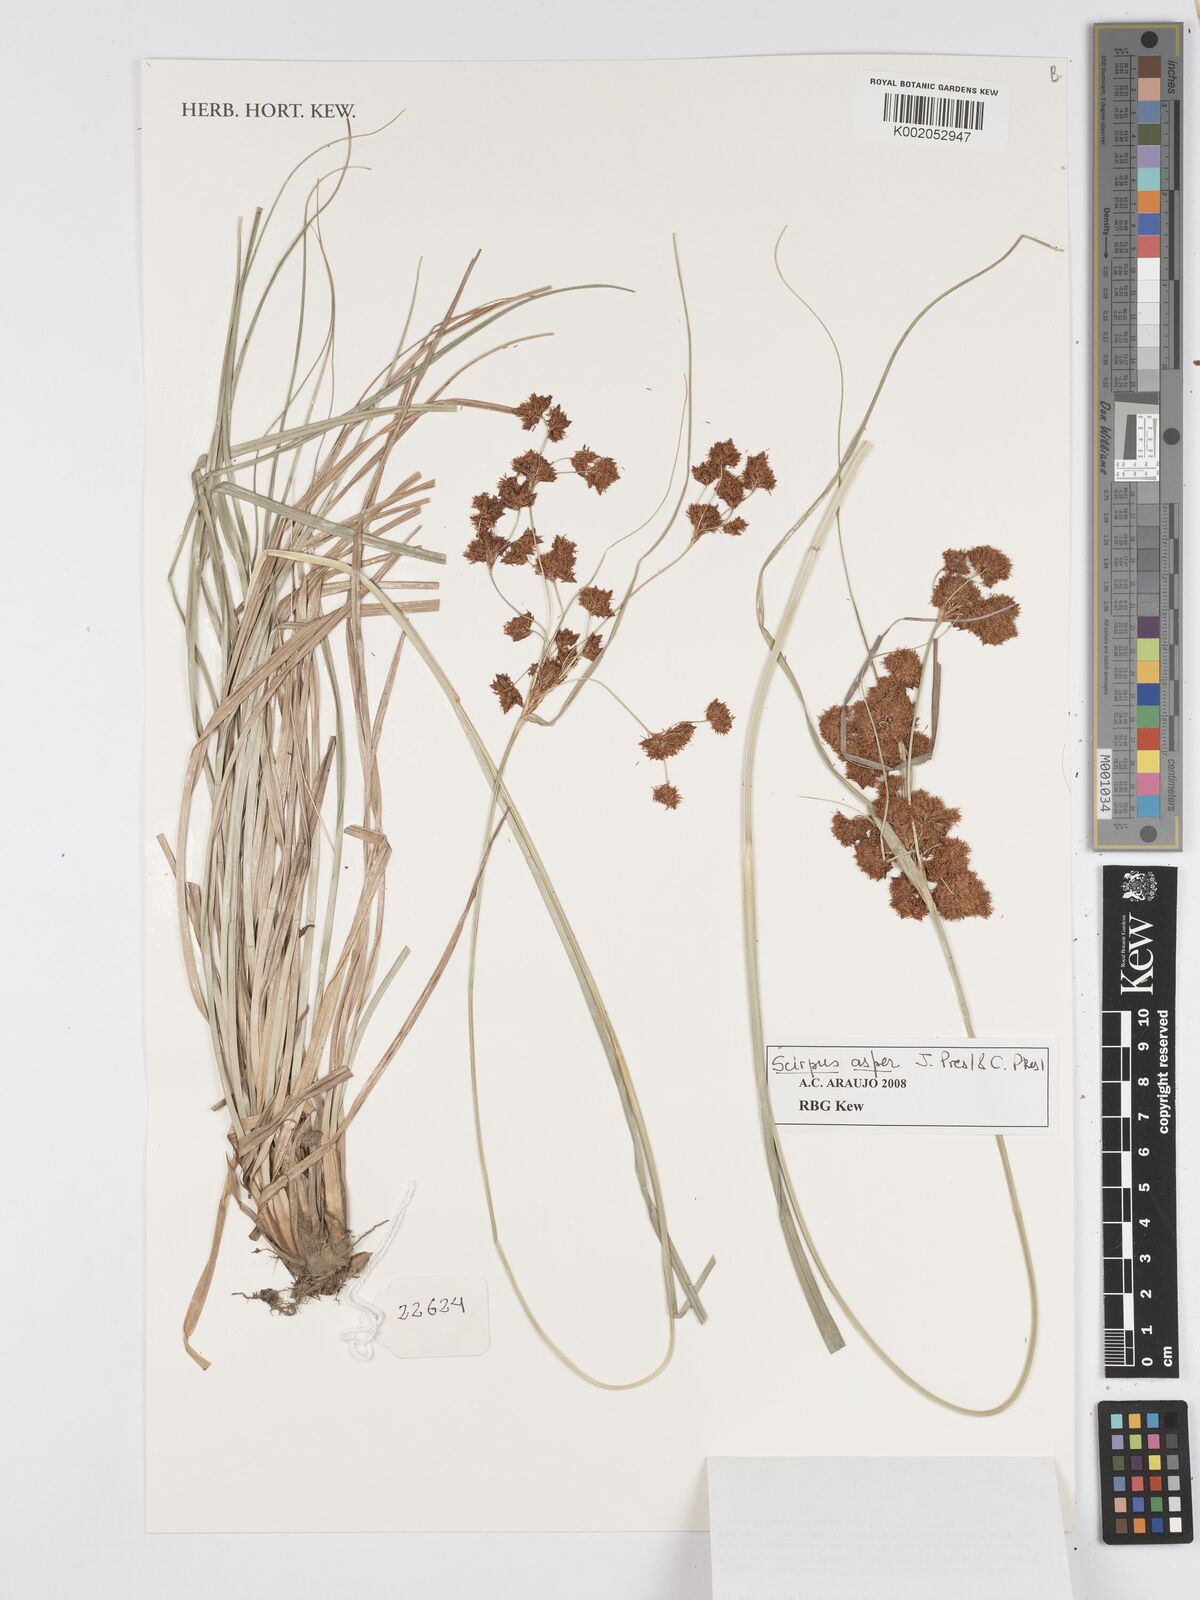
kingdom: Plantae
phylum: Tracheophyta
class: Liliopsida
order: Poales
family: Cyperaceae
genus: Rhodoscirpus
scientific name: Rhodoscirpus asper
